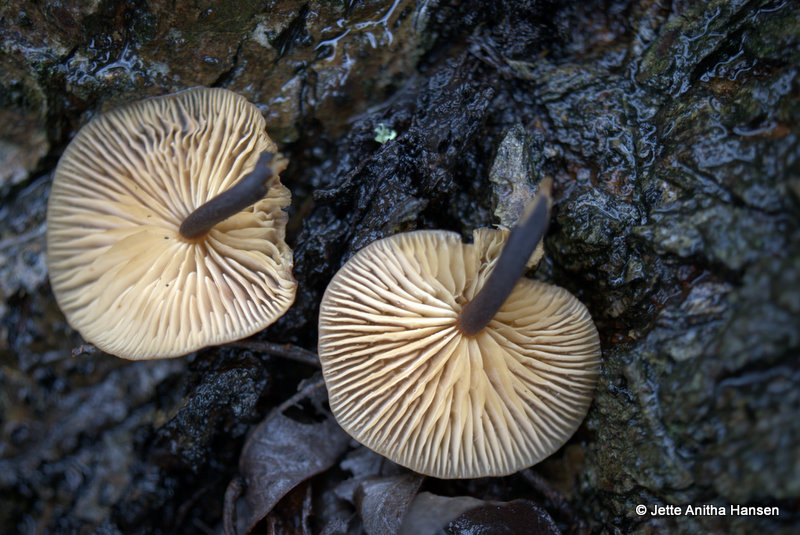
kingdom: Fungi
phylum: Basidiomycota
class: Agaricomycetes
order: Agaricales
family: Physalacriaceae
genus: Flammulina
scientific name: Flammulina velutipes
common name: gul fløjlsfod
